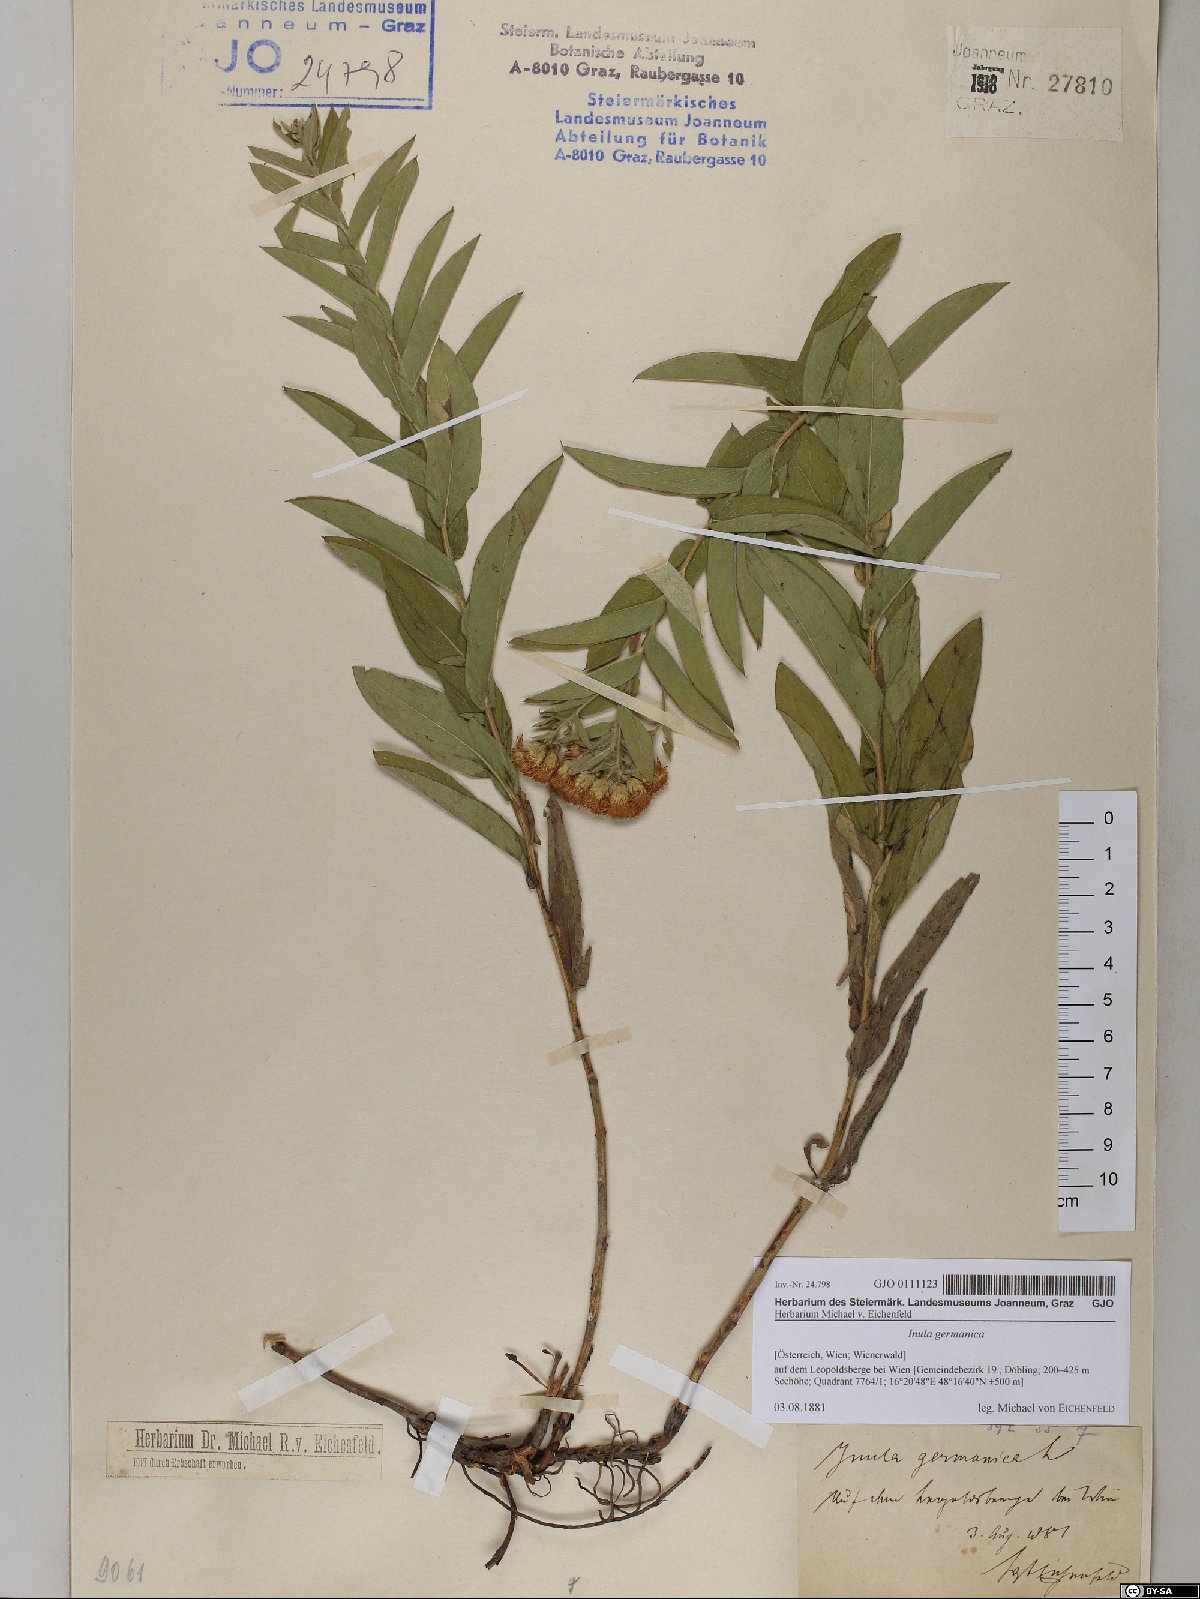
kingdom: Plantae
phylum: Tracheophyta
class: Magnoliopsida
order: Asterales
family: Asteraceae
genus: Pentanema
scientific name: Pentanema germanicum
